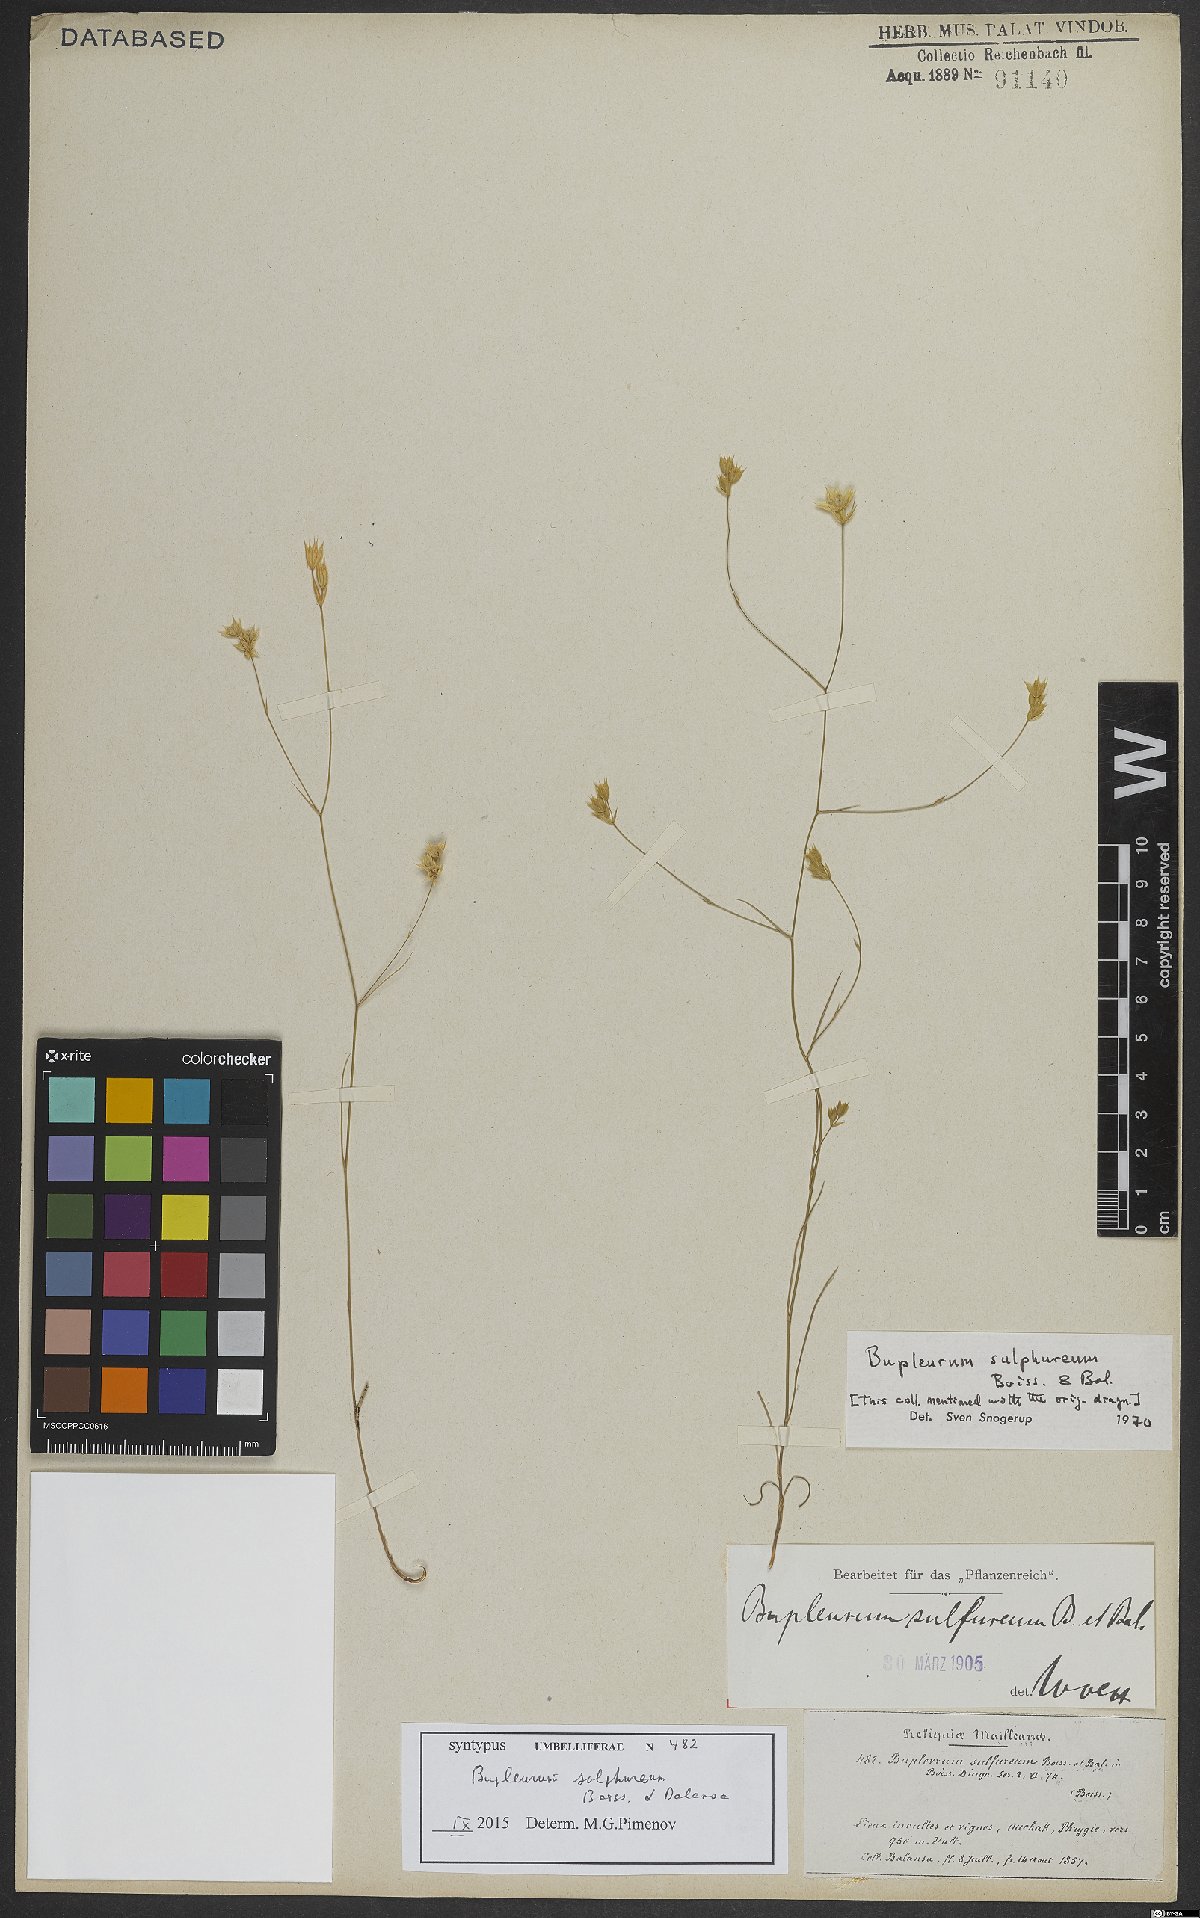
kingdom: Plantae
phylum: Tracheophyta
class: Magnoliopsida
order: Apiales
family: Apiaceae
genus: Bupleurum
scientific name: Bupleurum sulphureum
